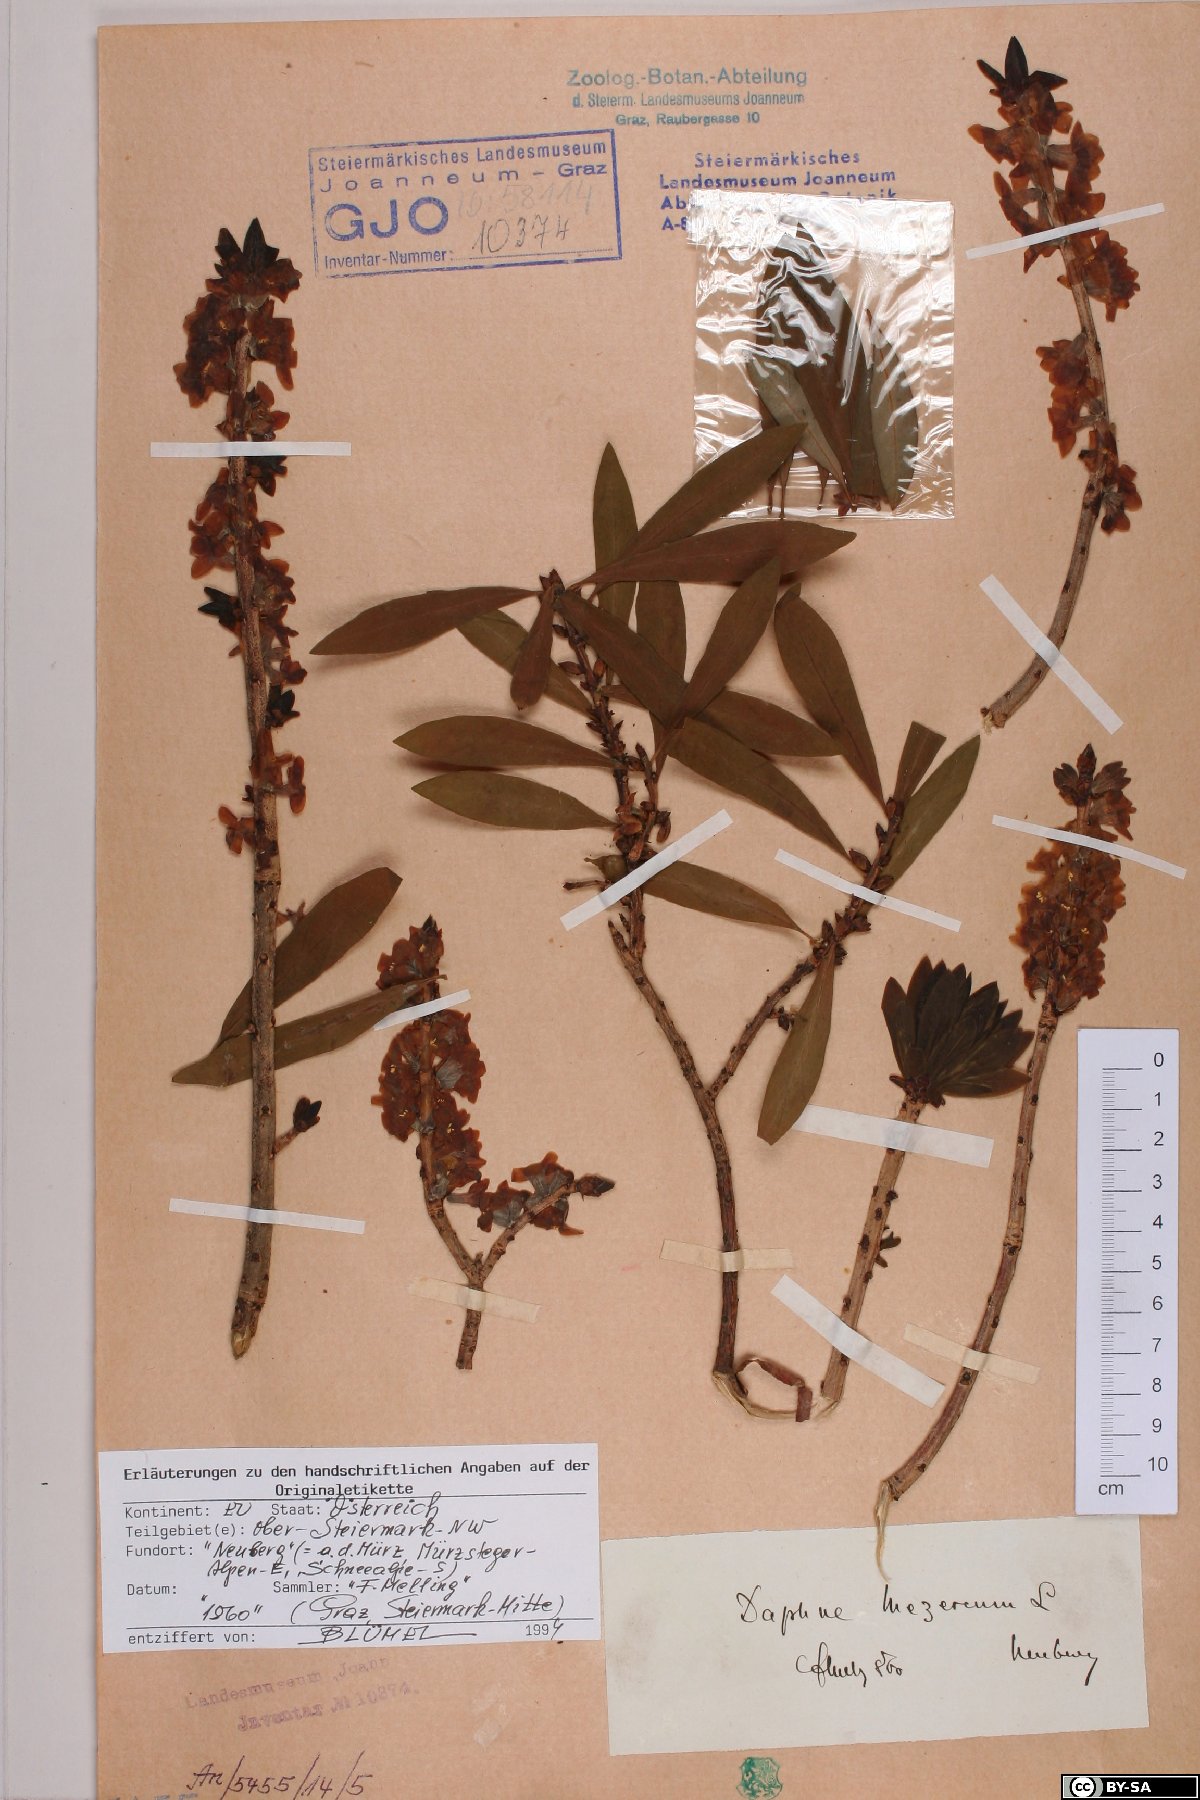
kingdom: Plantae
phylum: Tracheophyta
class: Magnoliopsida
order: Malvales
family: Thymelaeaceae
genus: Daphne
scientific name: Daphne mezereum
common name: Mezereon
